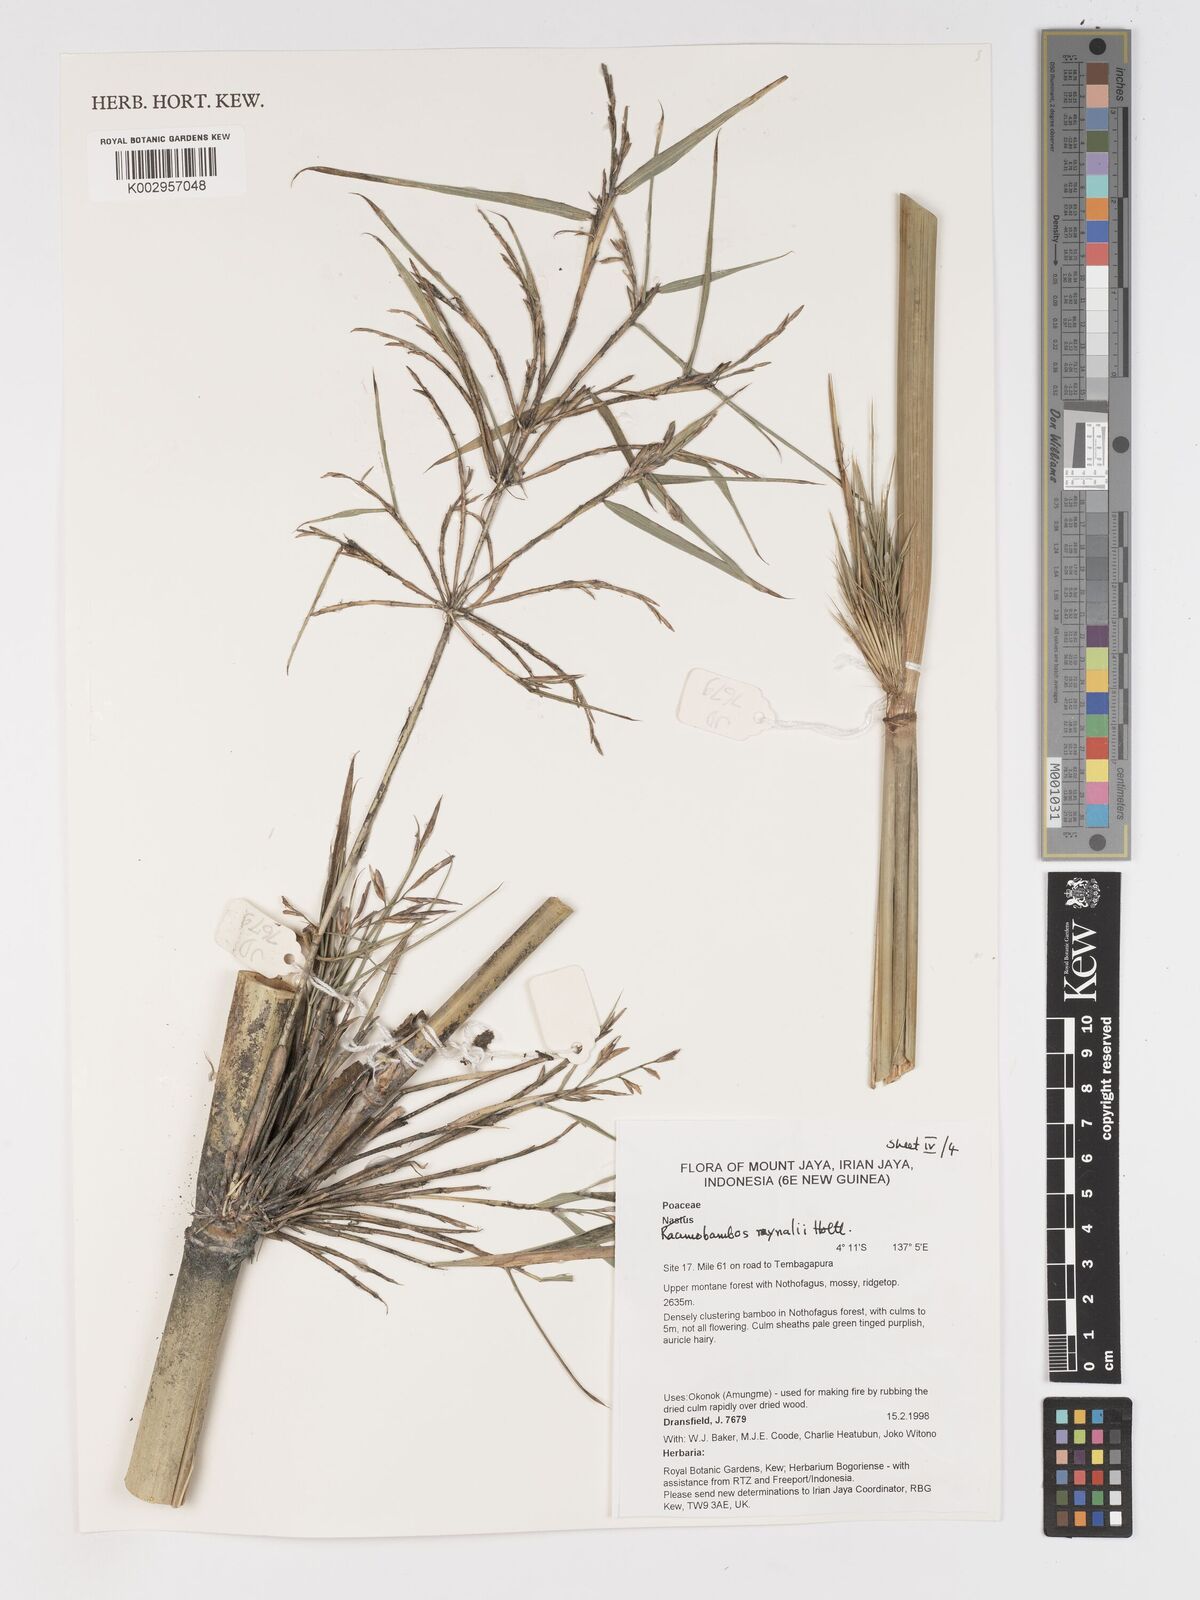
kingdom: Plantae
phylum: Tracheophyta
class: Liliopsida
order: Poales
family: Poaceae
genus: Racemobambos
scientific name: Racemobambos raynalii
